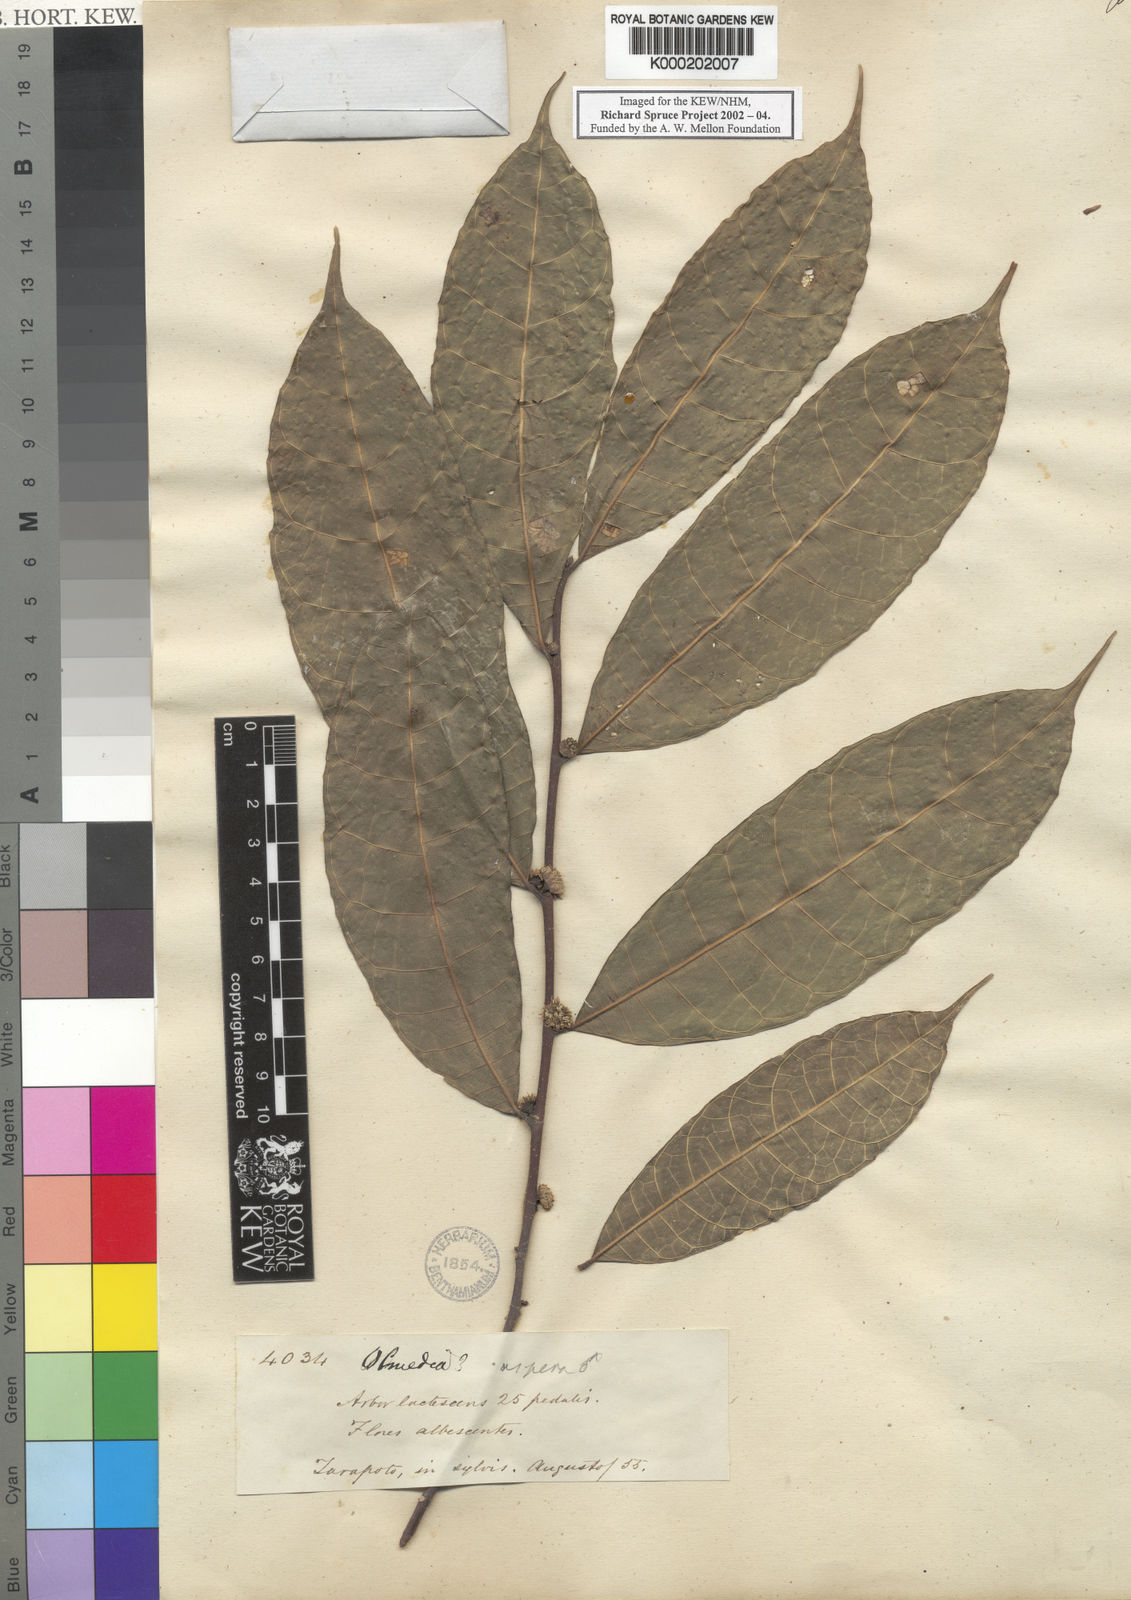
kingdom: Plantae
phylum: Tracheophyta
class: Magnoliopsida
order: Rosales
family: Moraceae
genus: Olmedia
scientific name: Olmedia aspera
